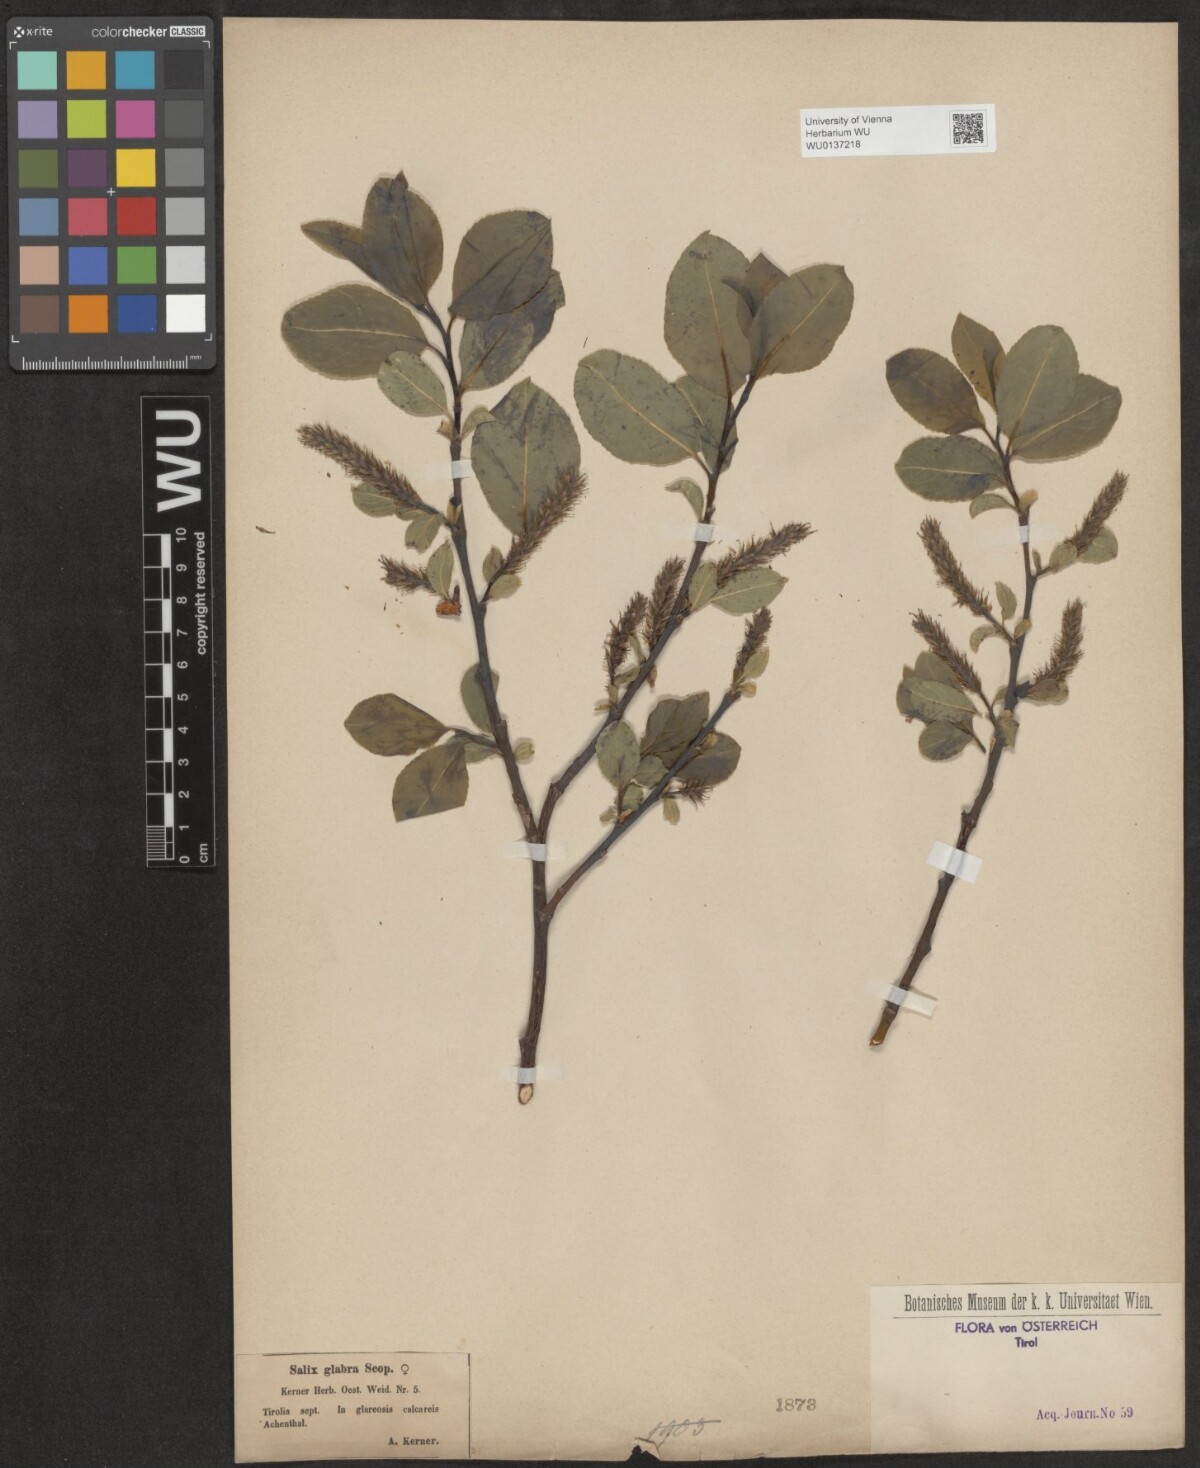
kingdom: Plantae
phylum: Tracheophyta
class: Magnoliopsida
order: Malpighiales
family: Salicaceae
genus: Salix
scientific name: Salix glabra
